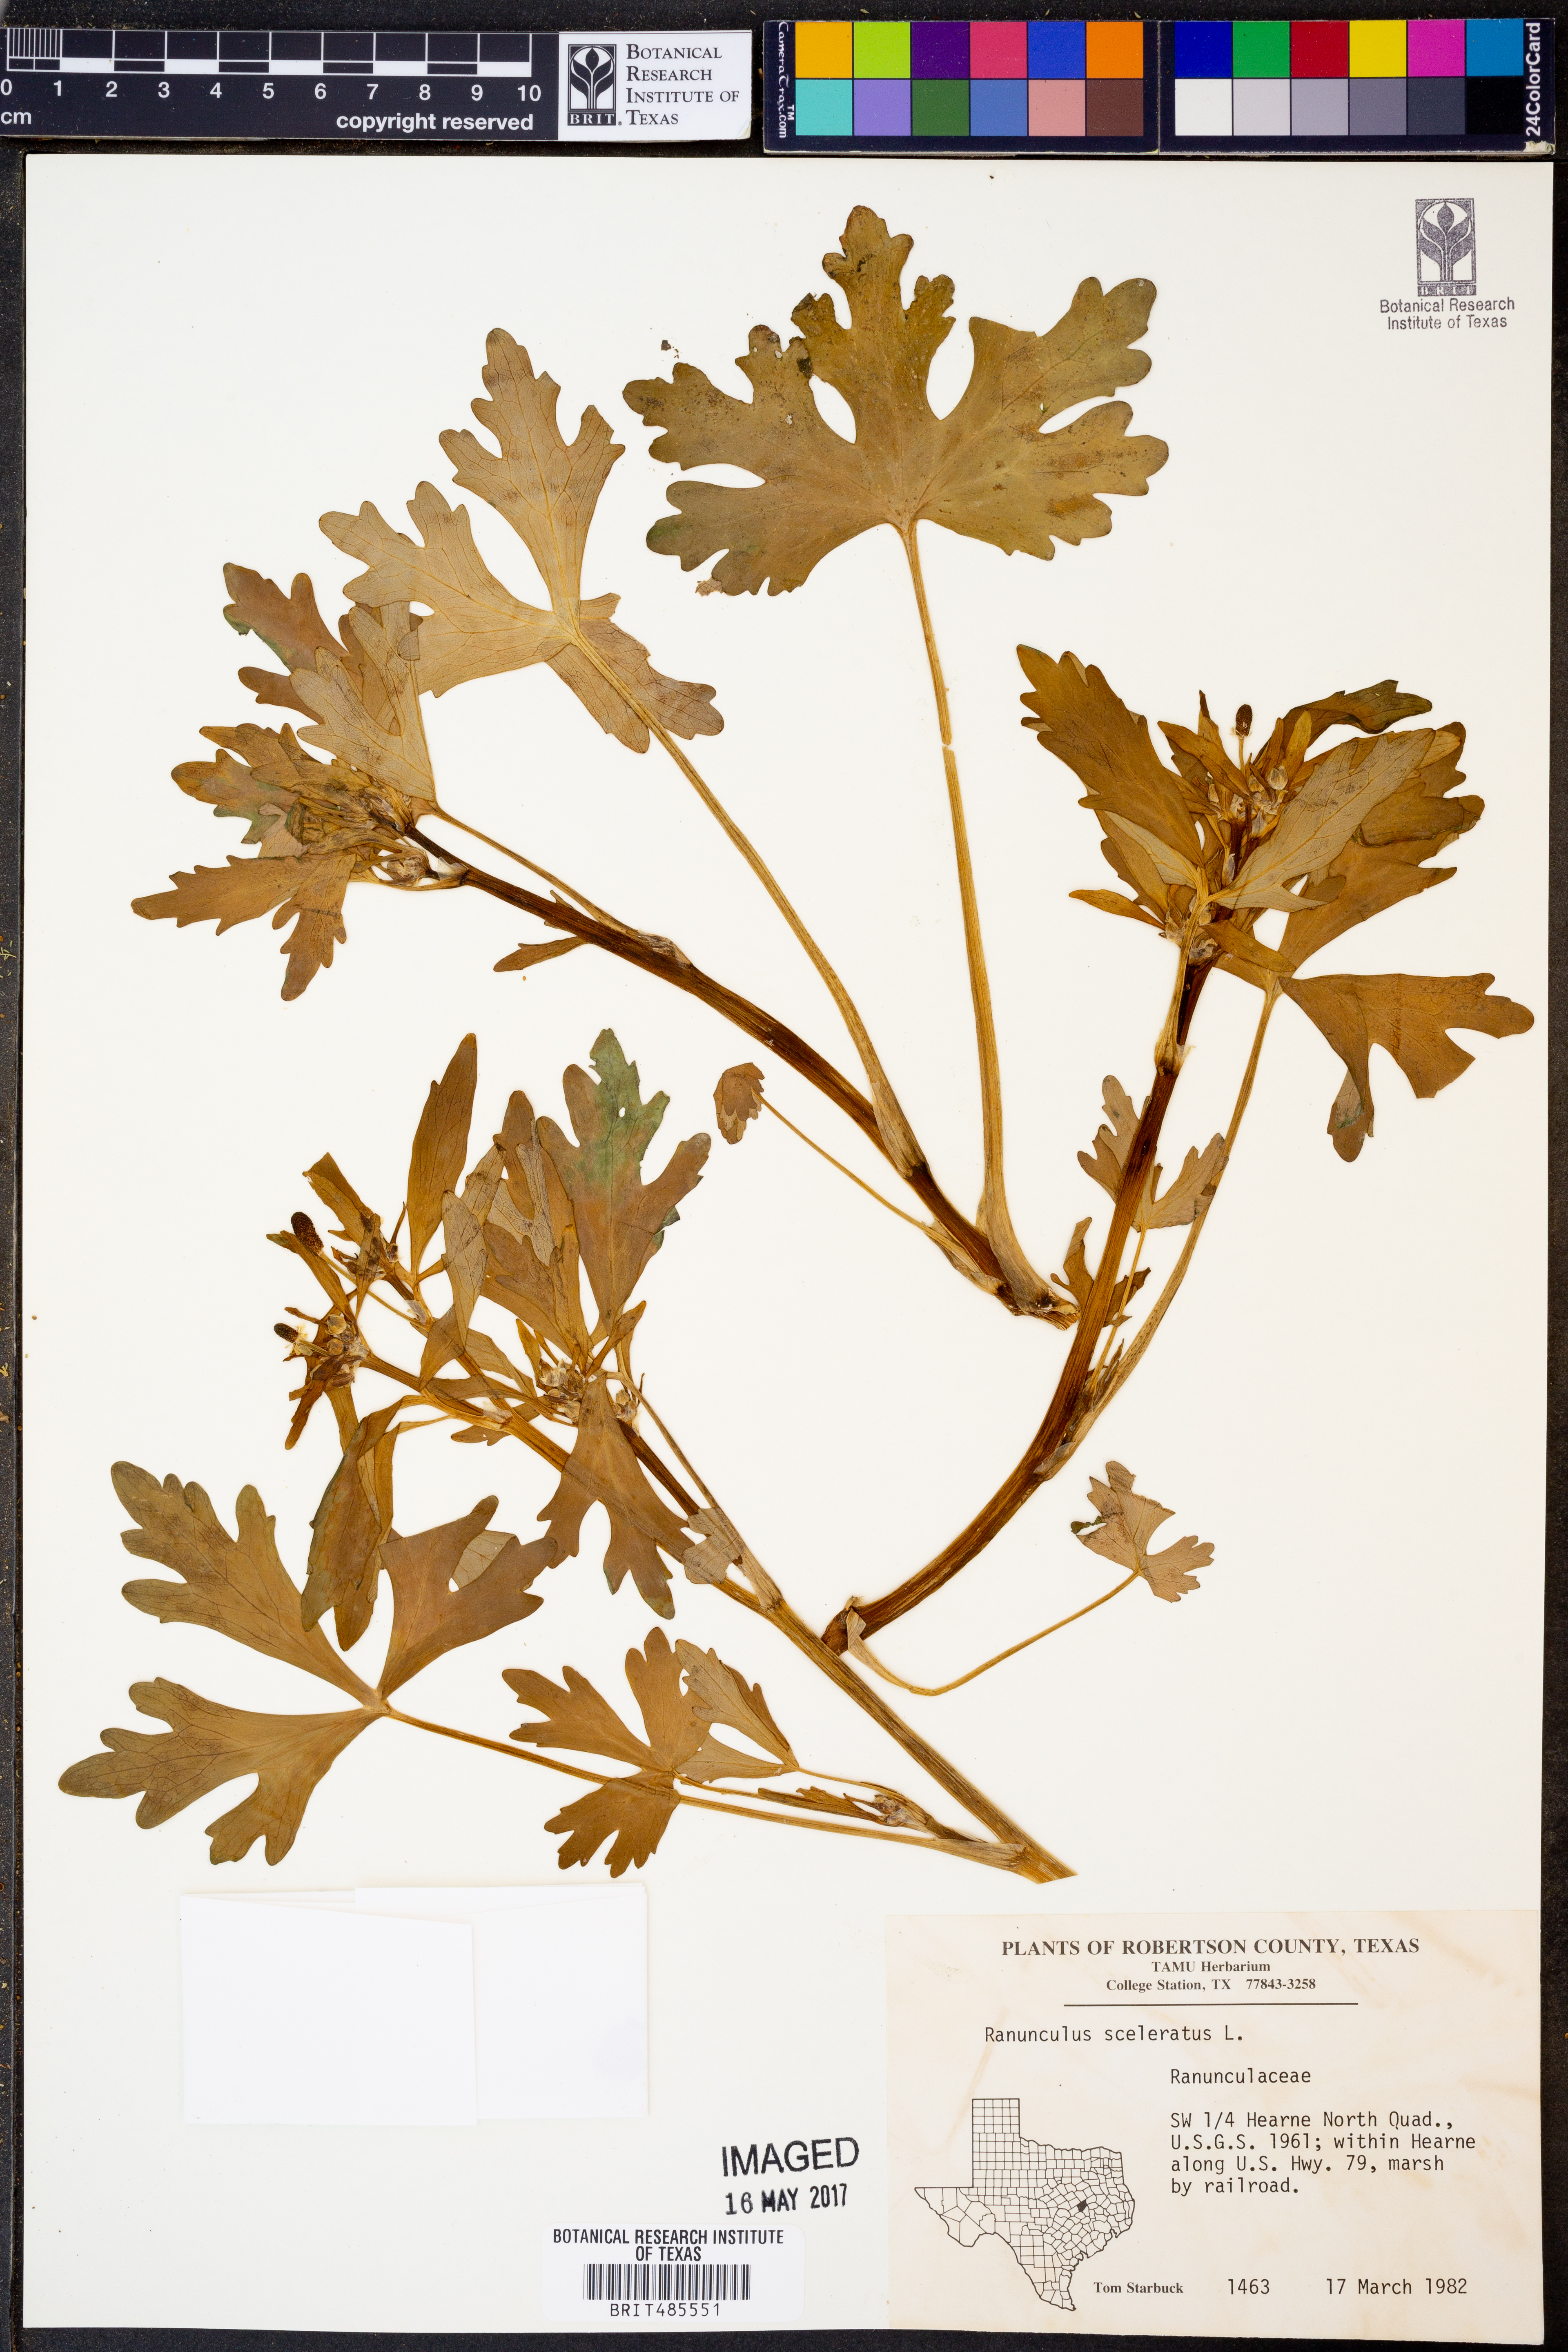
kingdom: Plantae
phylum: Tracheophyta
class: Magnoliopsida
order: Ranunculales
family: Ranunculaceae
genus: Ranunculus
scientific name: Ranunculus sceleratus
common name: Celery-leaved buttercup
